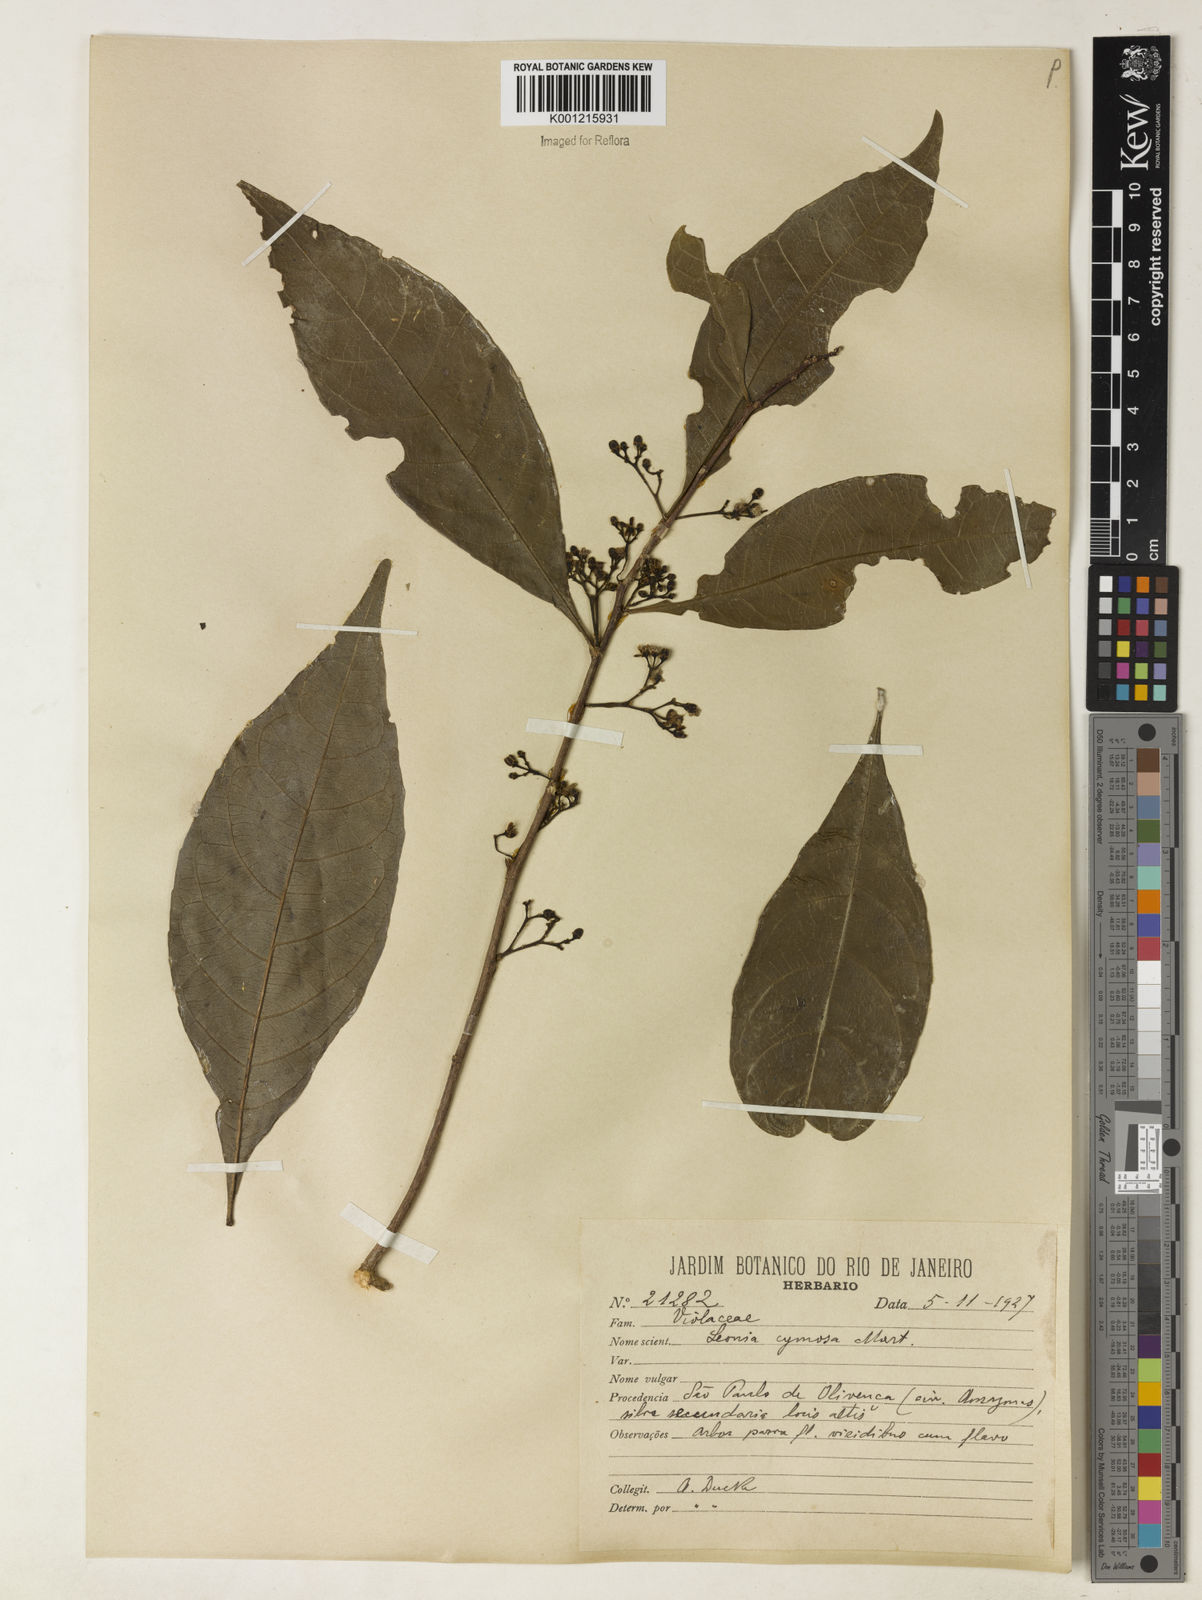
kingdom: Plantae
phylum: Tracheophyta
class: Magnoliopsida
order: Malpighiales
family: Violaceae
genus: Leonia
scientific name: Leonia cymosa
